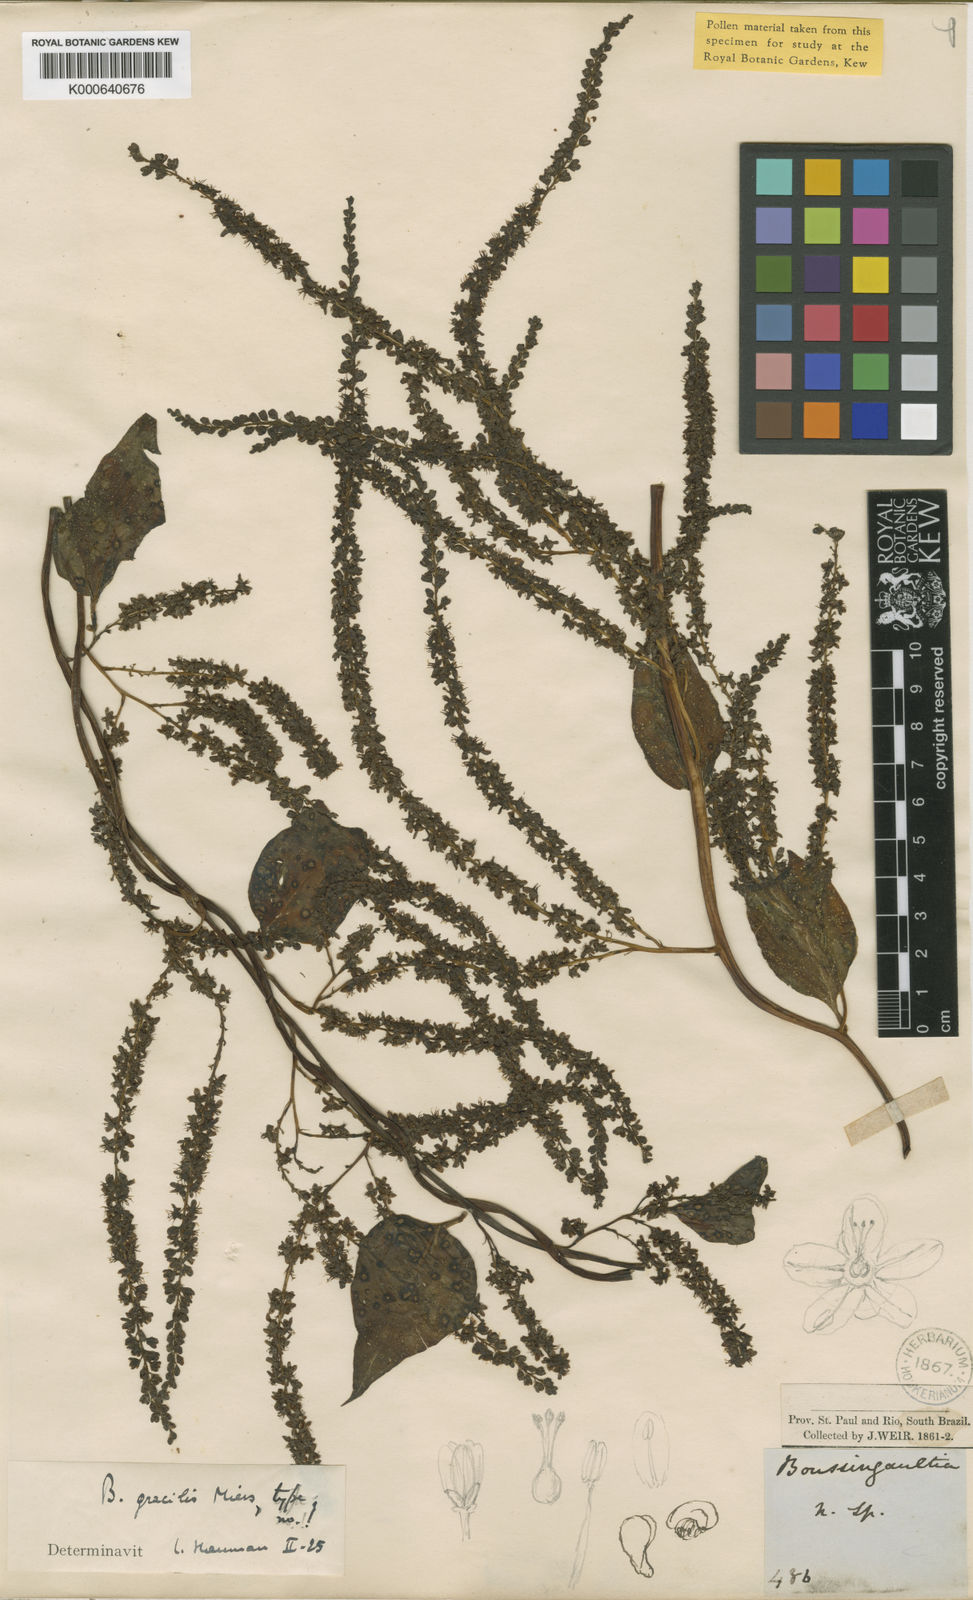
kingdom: Plantae
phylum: Tracheophyta
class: Magnoliopsida
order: Caryophyllales
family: Basellaceae
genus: Anredera
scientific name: Anredera cordifolia
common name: Heartleaf madeiravine
